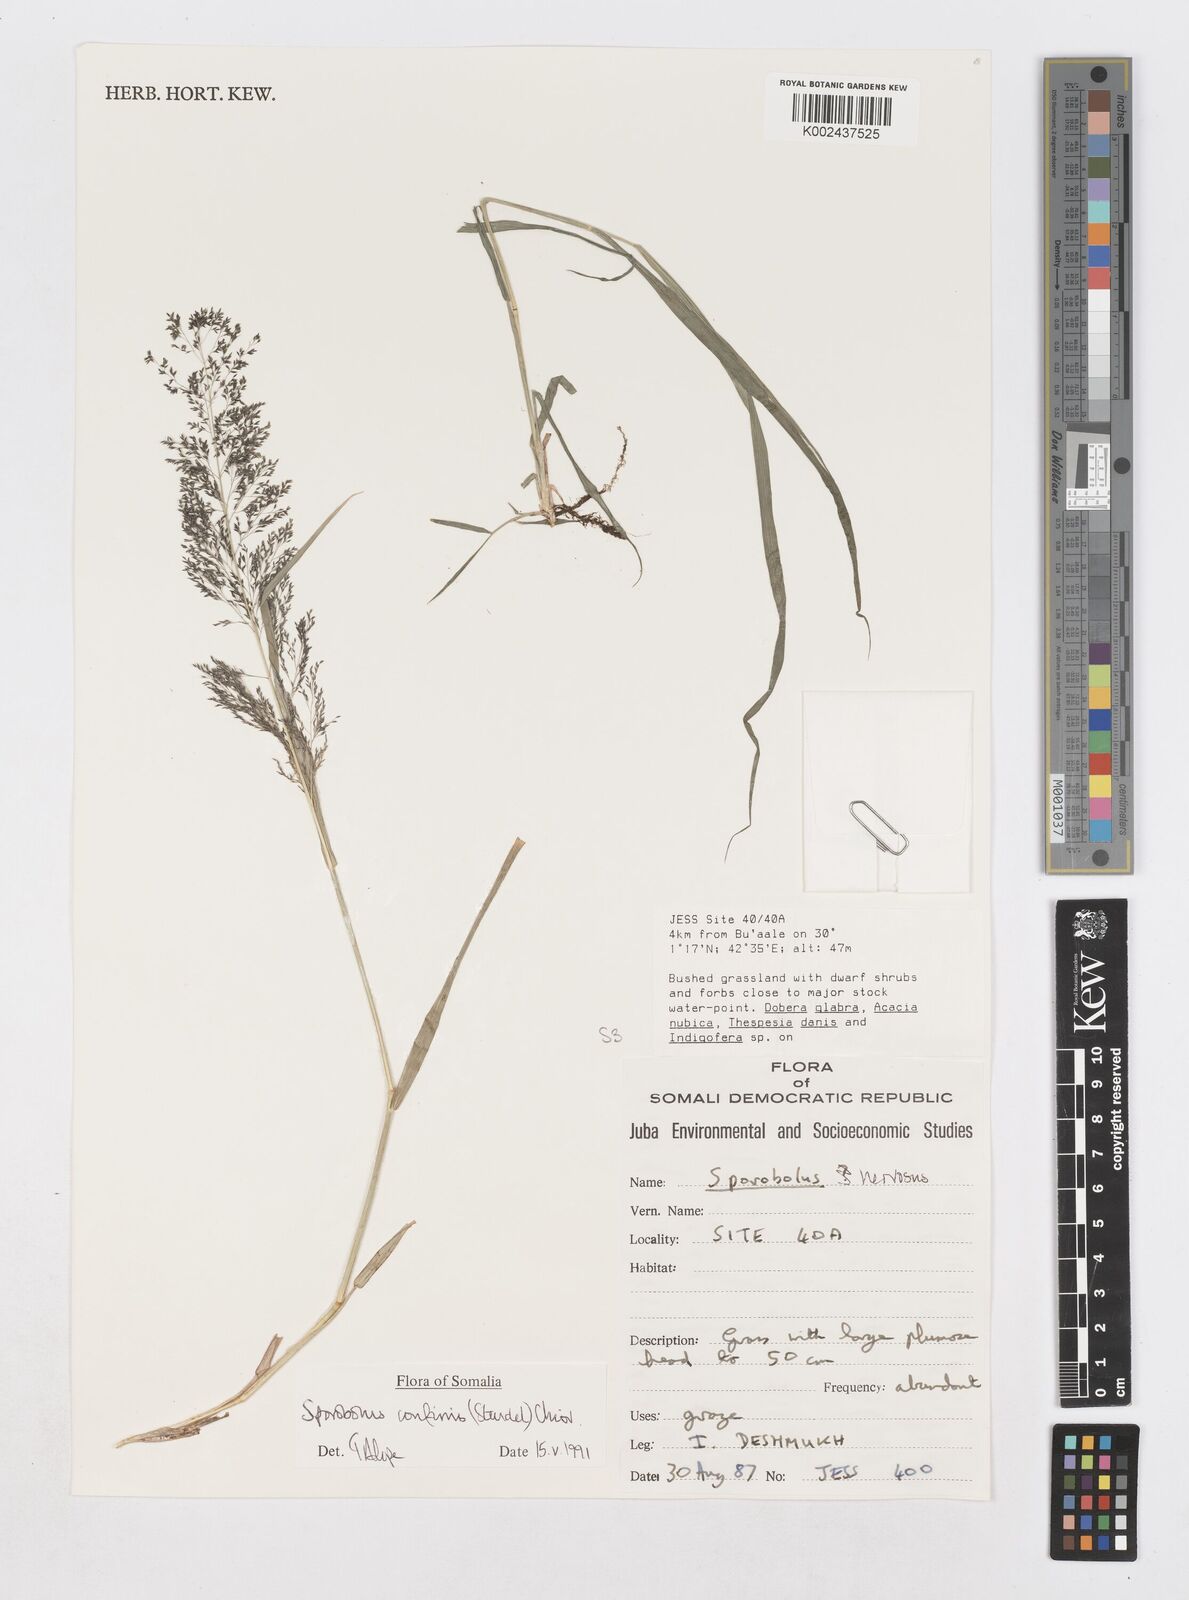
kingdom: Plantae
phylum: Tracheophyta
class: Liliopsida
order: Poales
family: Poaceae
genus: Sporobolus
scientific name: Sporobolus confinis
